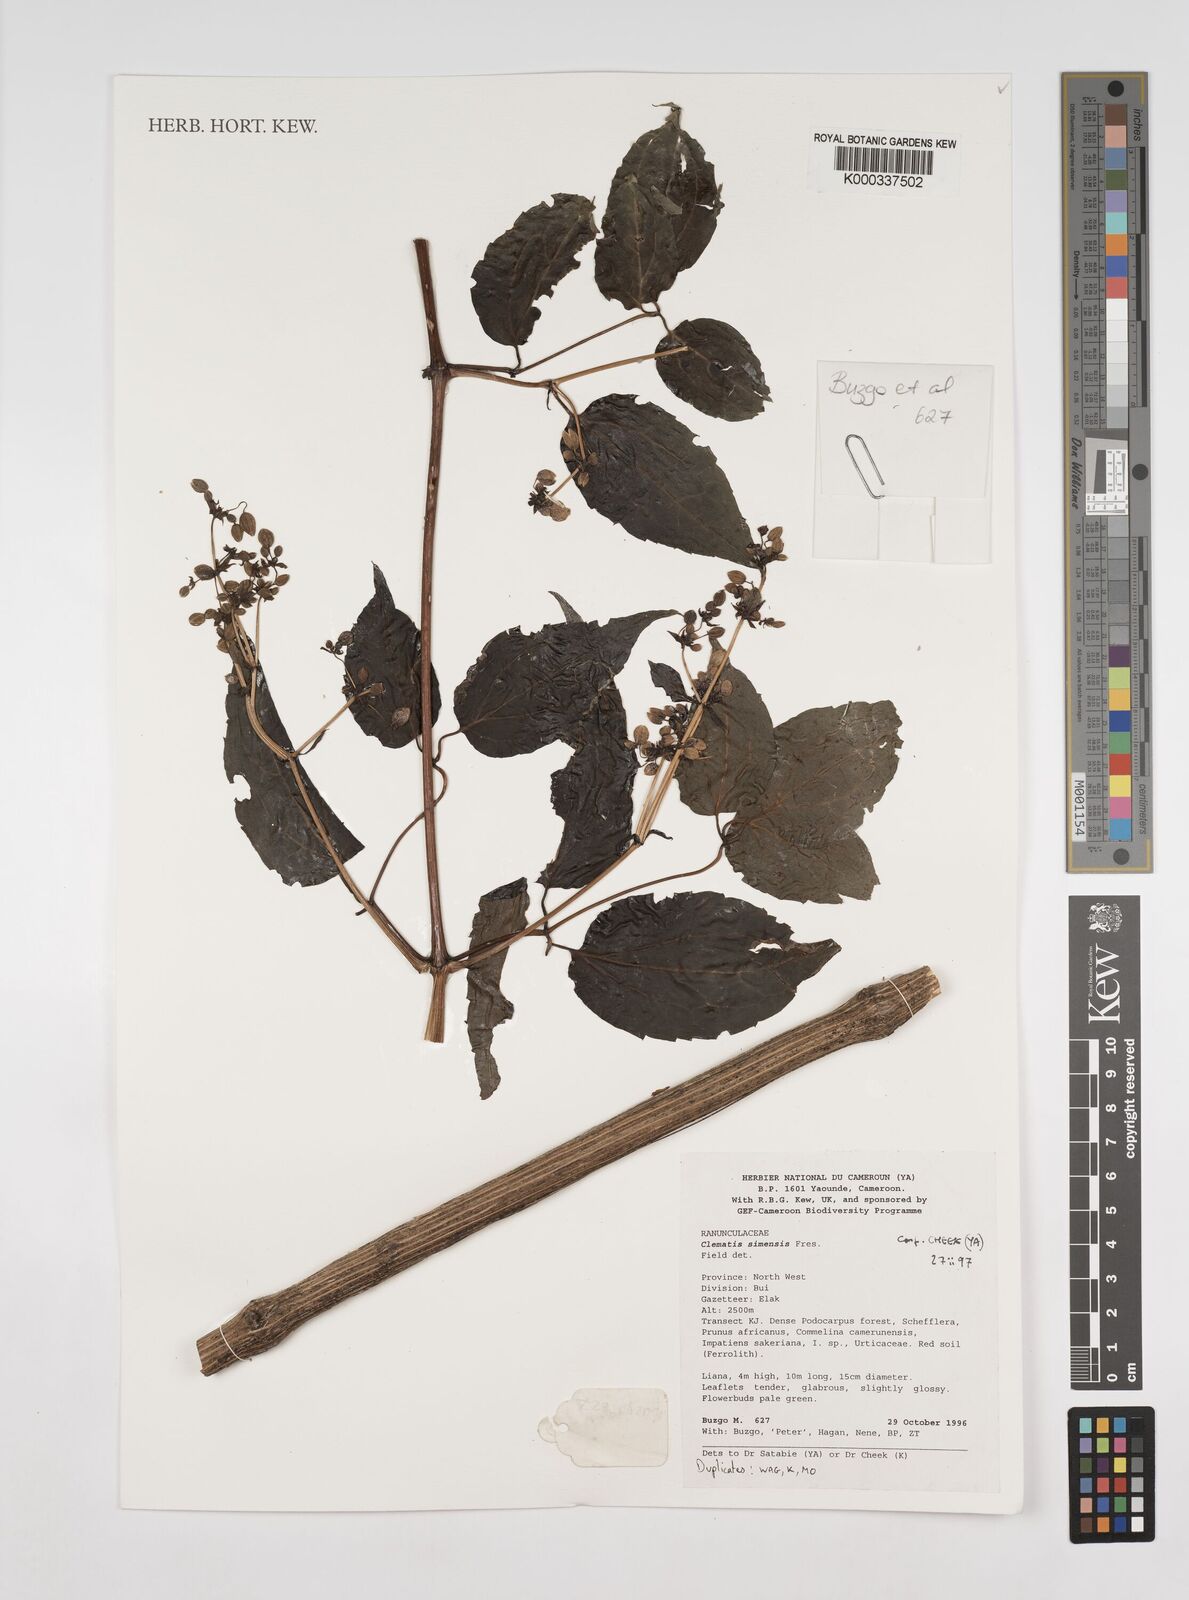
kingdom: Plantae
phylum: Tracheophyta
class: Magnoliopsida
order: Ranunculales
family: Ranunculaceae
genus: Clematis
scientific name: Clematis simensis
